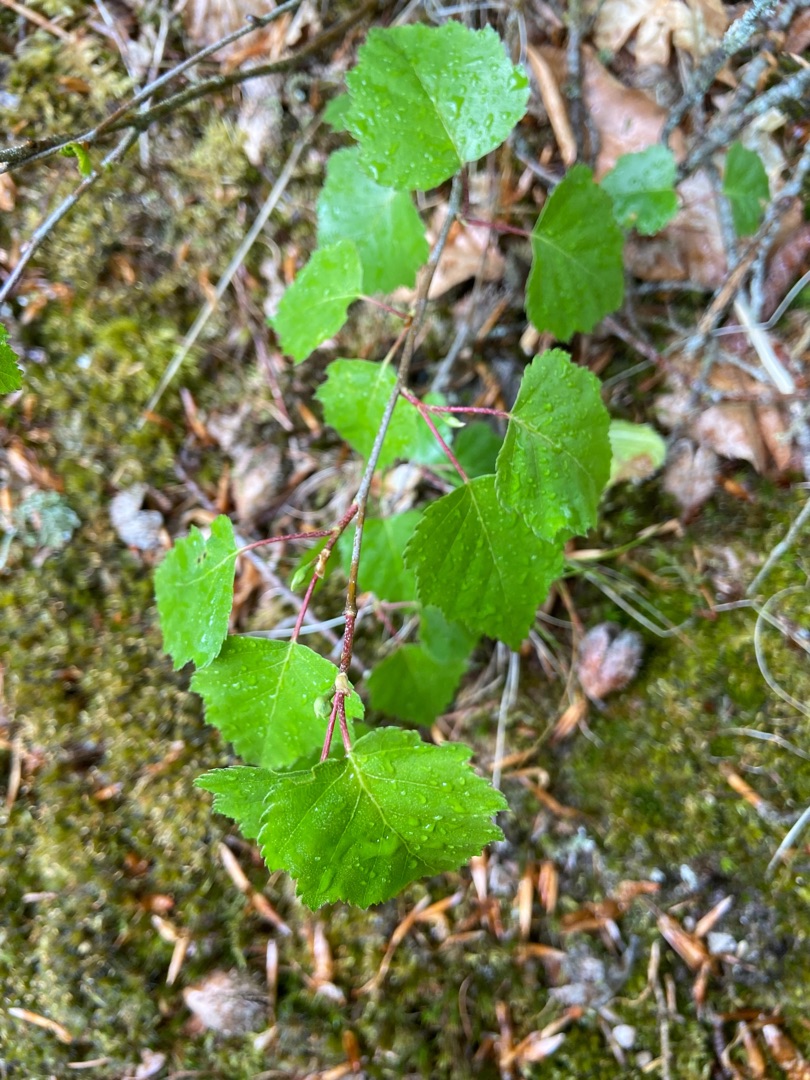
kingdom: Plantae
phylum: Tracheophyta
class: Magnoliopsida
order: Fagales
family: Betulaceae
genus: Betula
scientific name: Betula pendula
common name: Vorte-birk
